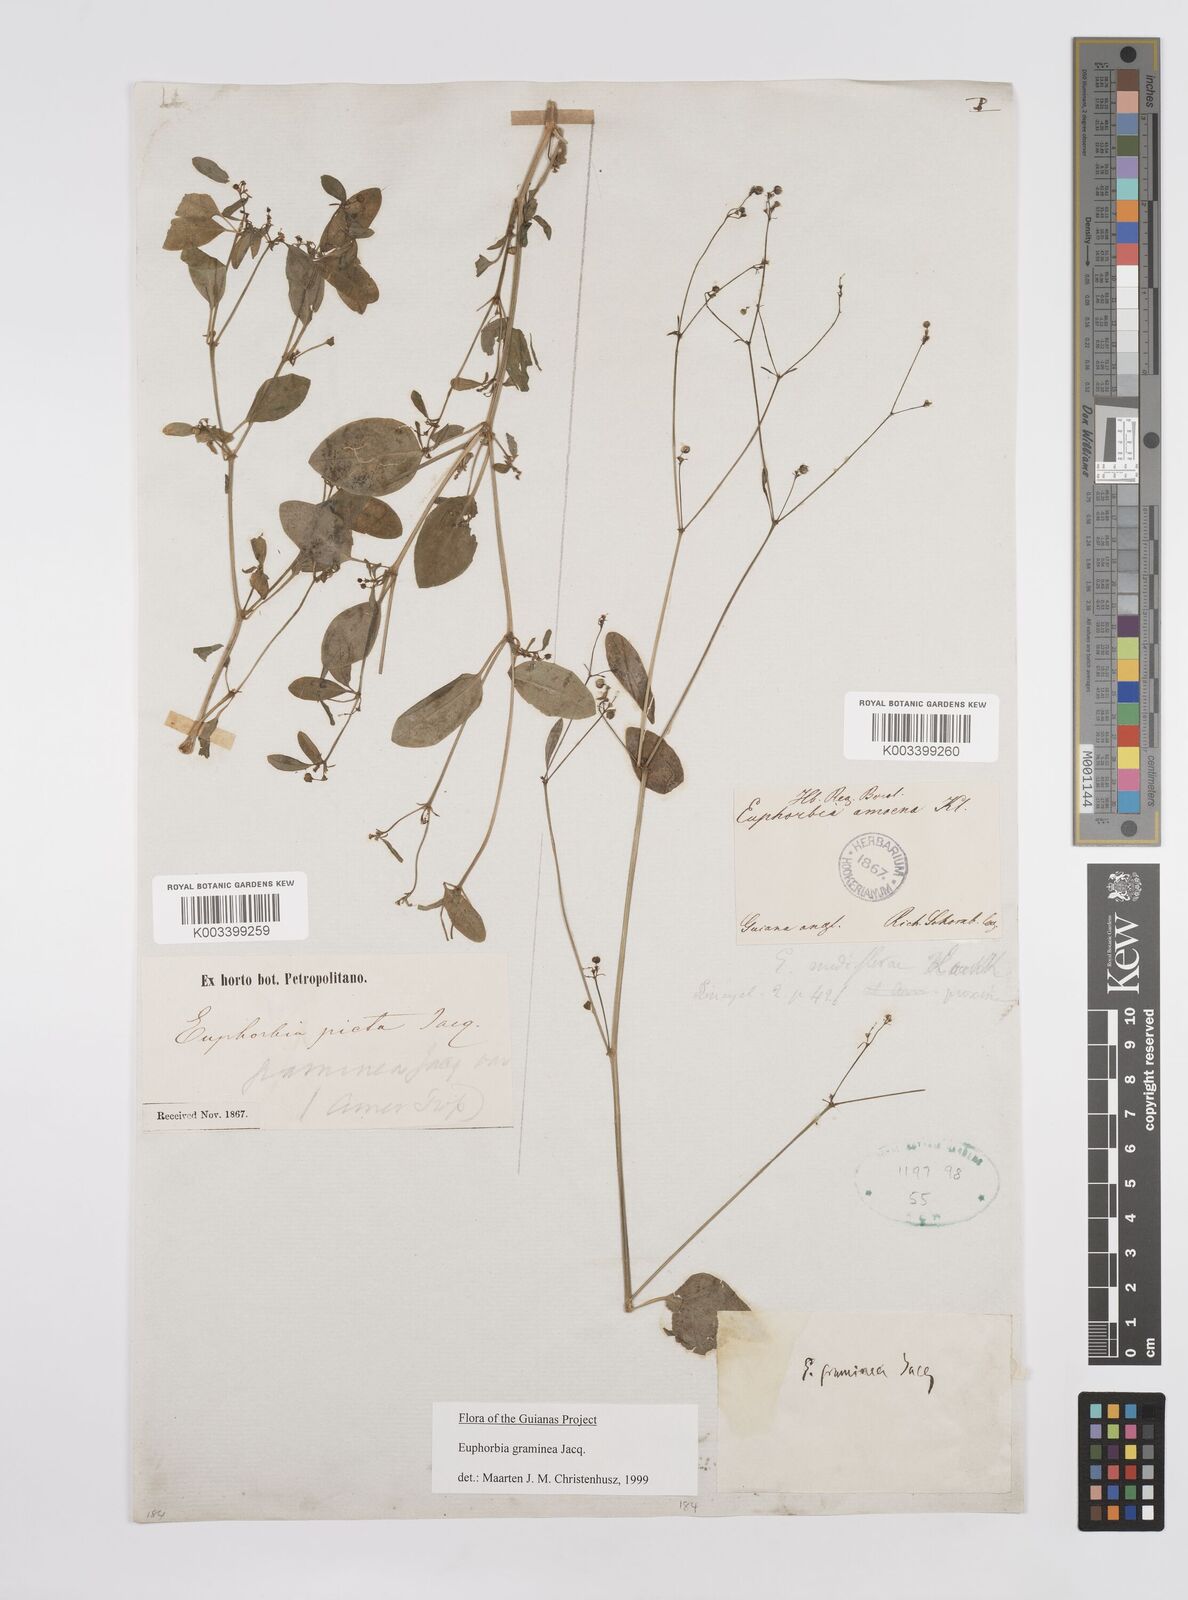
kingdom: Plantae
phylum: Tracheophyta
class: Magnoliopsida
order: Malpighiales
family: Euphorbiaceae
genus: Euphorbia
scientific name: Euphorbia graminea
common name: Grassleaf spurge
